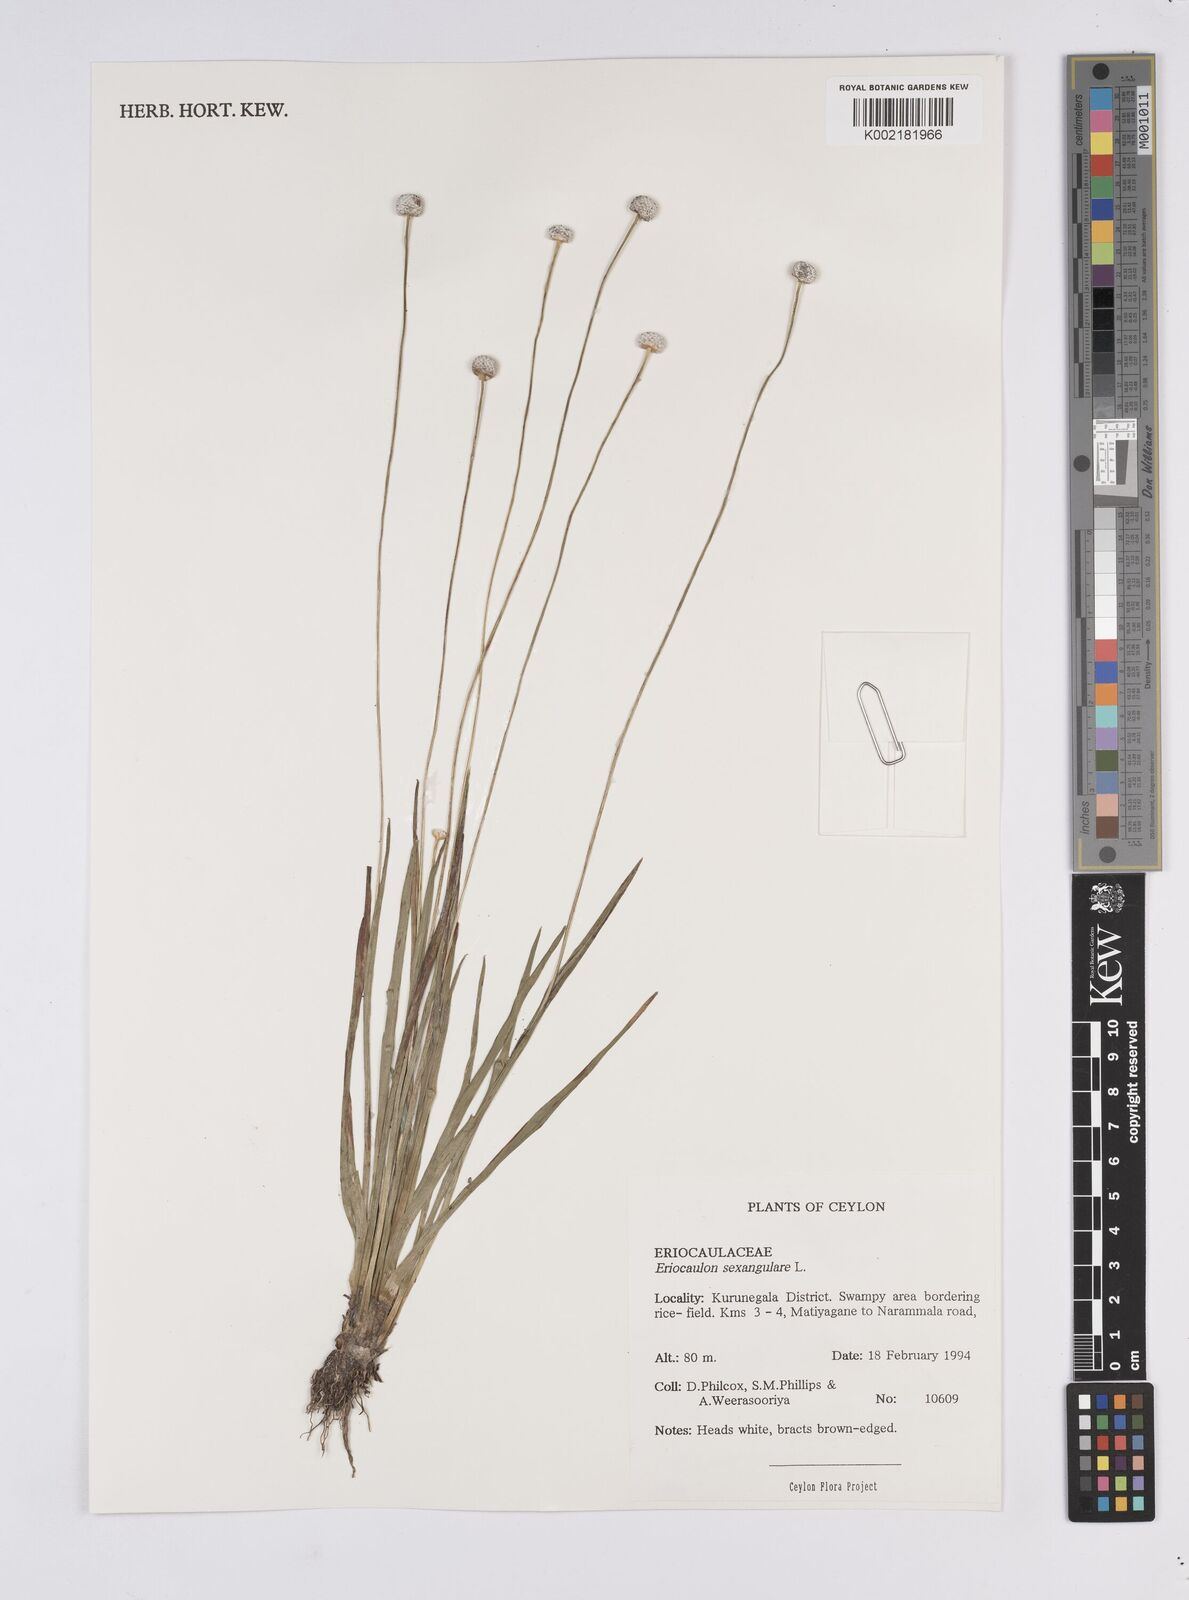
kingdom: Plantae
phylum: Tracheophyta
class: Liliopsida
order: Poales
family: Eriocaulaceae
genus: Eriocaulon
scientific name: Eriocaulon sexangulare
